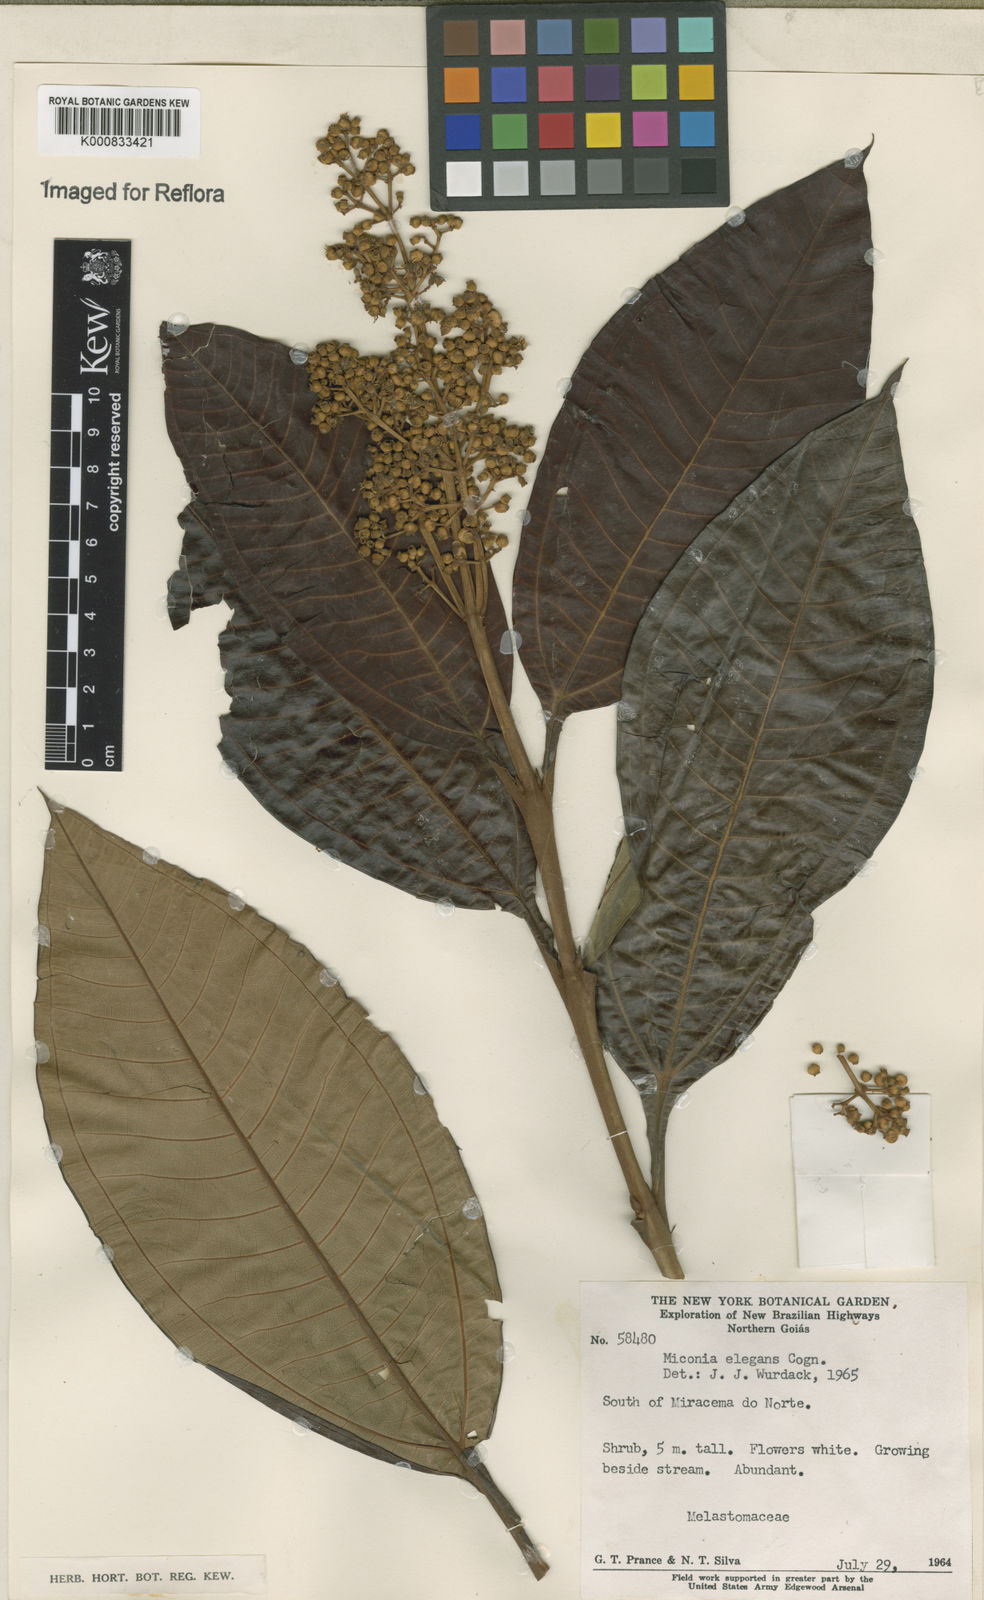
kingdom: Plantae
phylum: Tracheophyta
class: Magnoliopsida
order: Myrtales
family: Melastomataceae
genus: Miconia
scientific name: Miconia elegans
